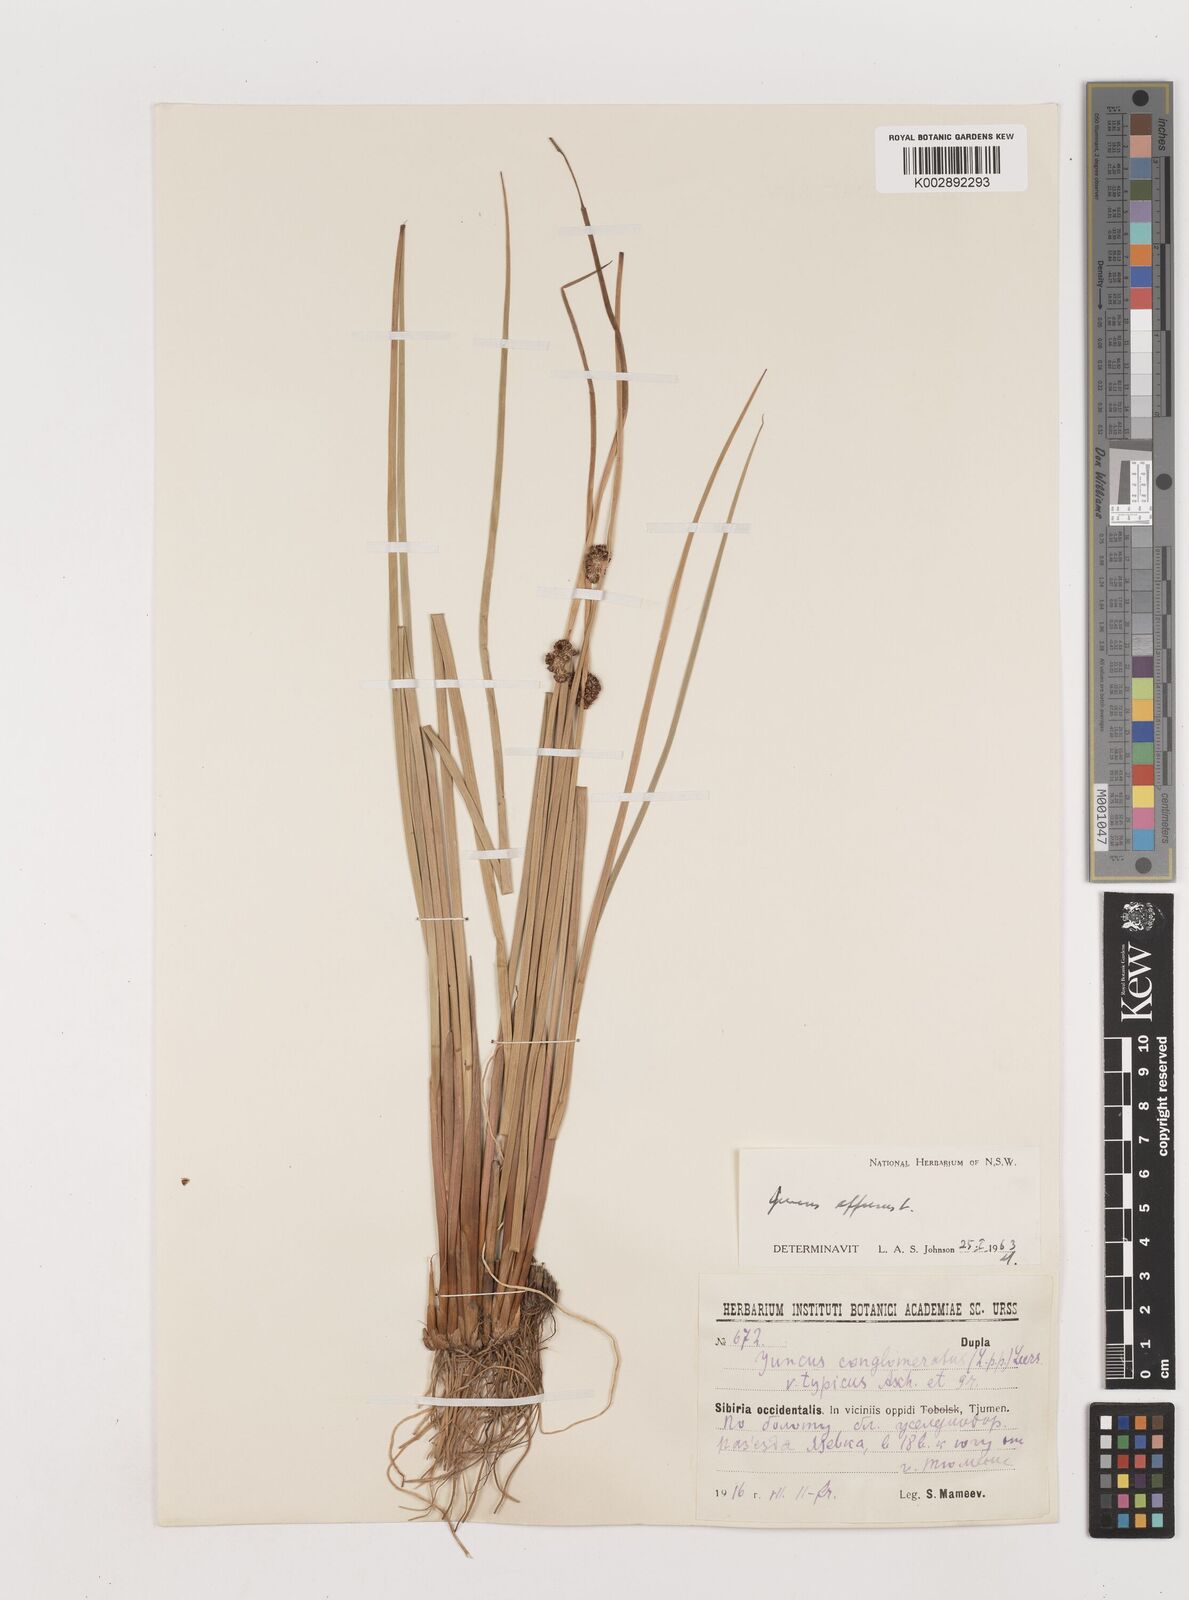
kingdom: Plantae
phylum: Tracheophyta
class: Liliopsida
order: Poales
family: Juncaceae
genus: Juncus
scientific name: Juncus effusus
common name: Soft rush
